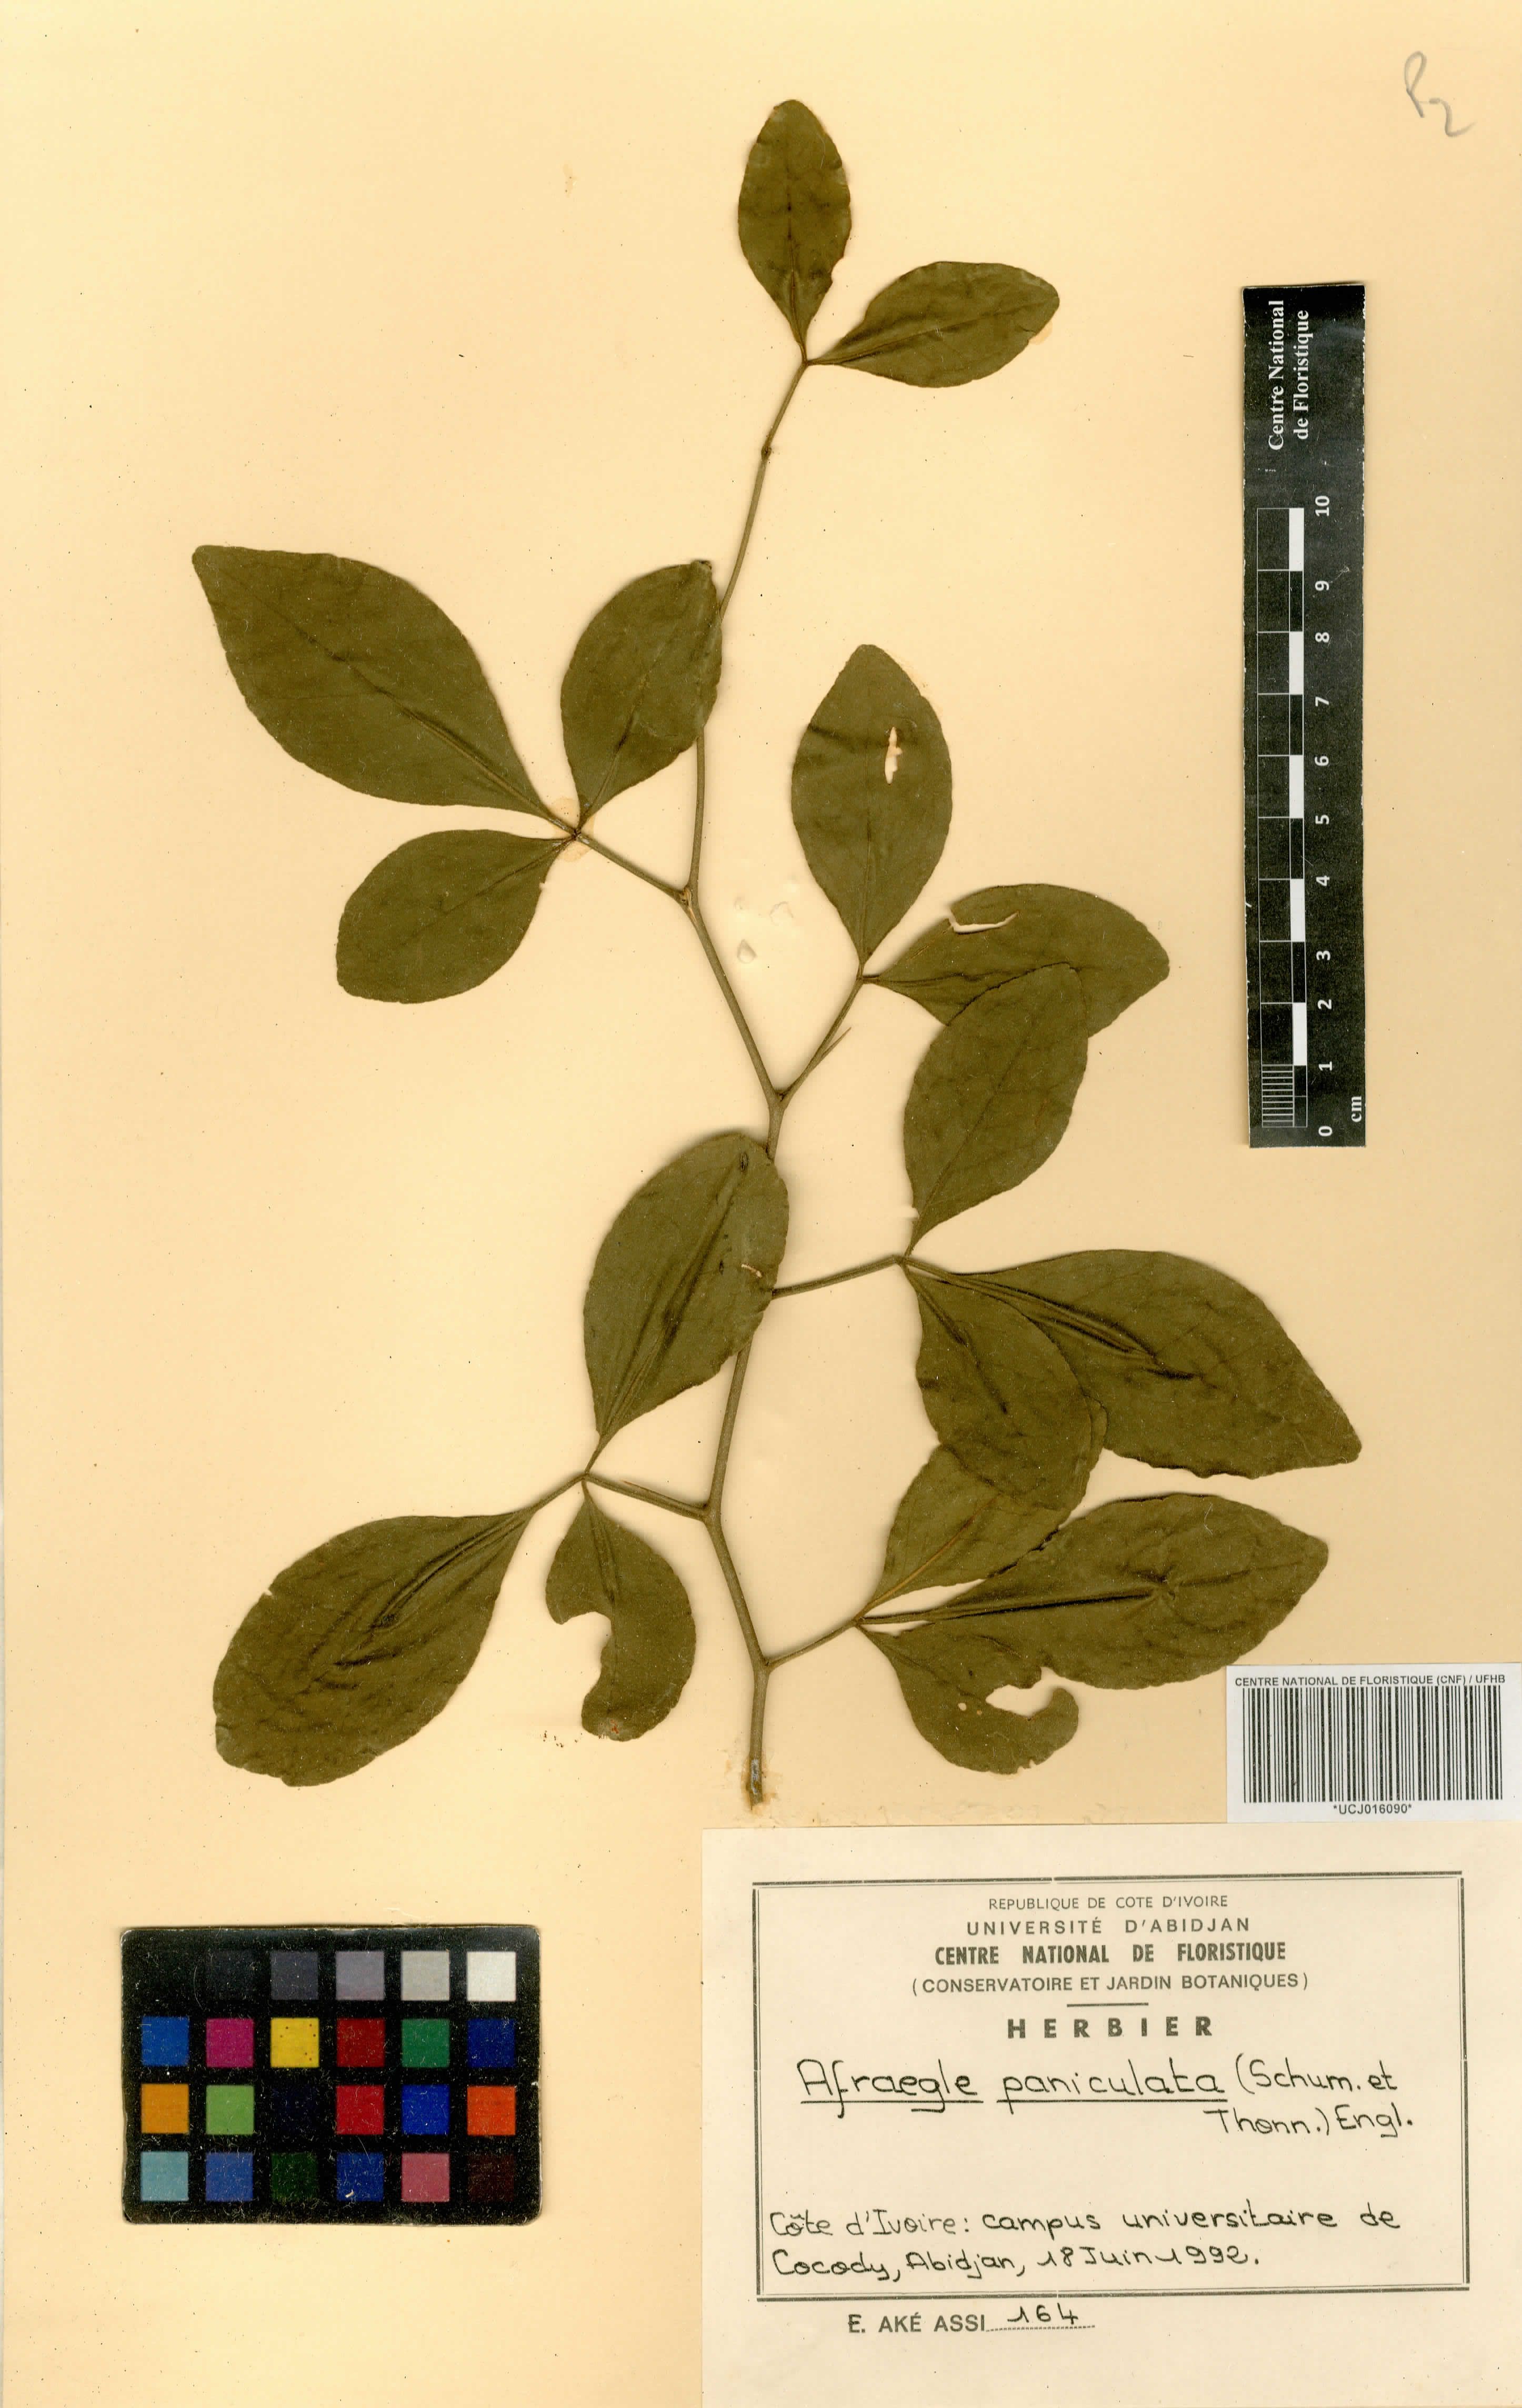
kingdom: Plantae
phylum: Tracheophyta
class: Magnoliopsida
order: Sapindales
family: Rutaceae
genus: Afraegle
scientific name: Afraegle paniculata
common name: Guin-guin
